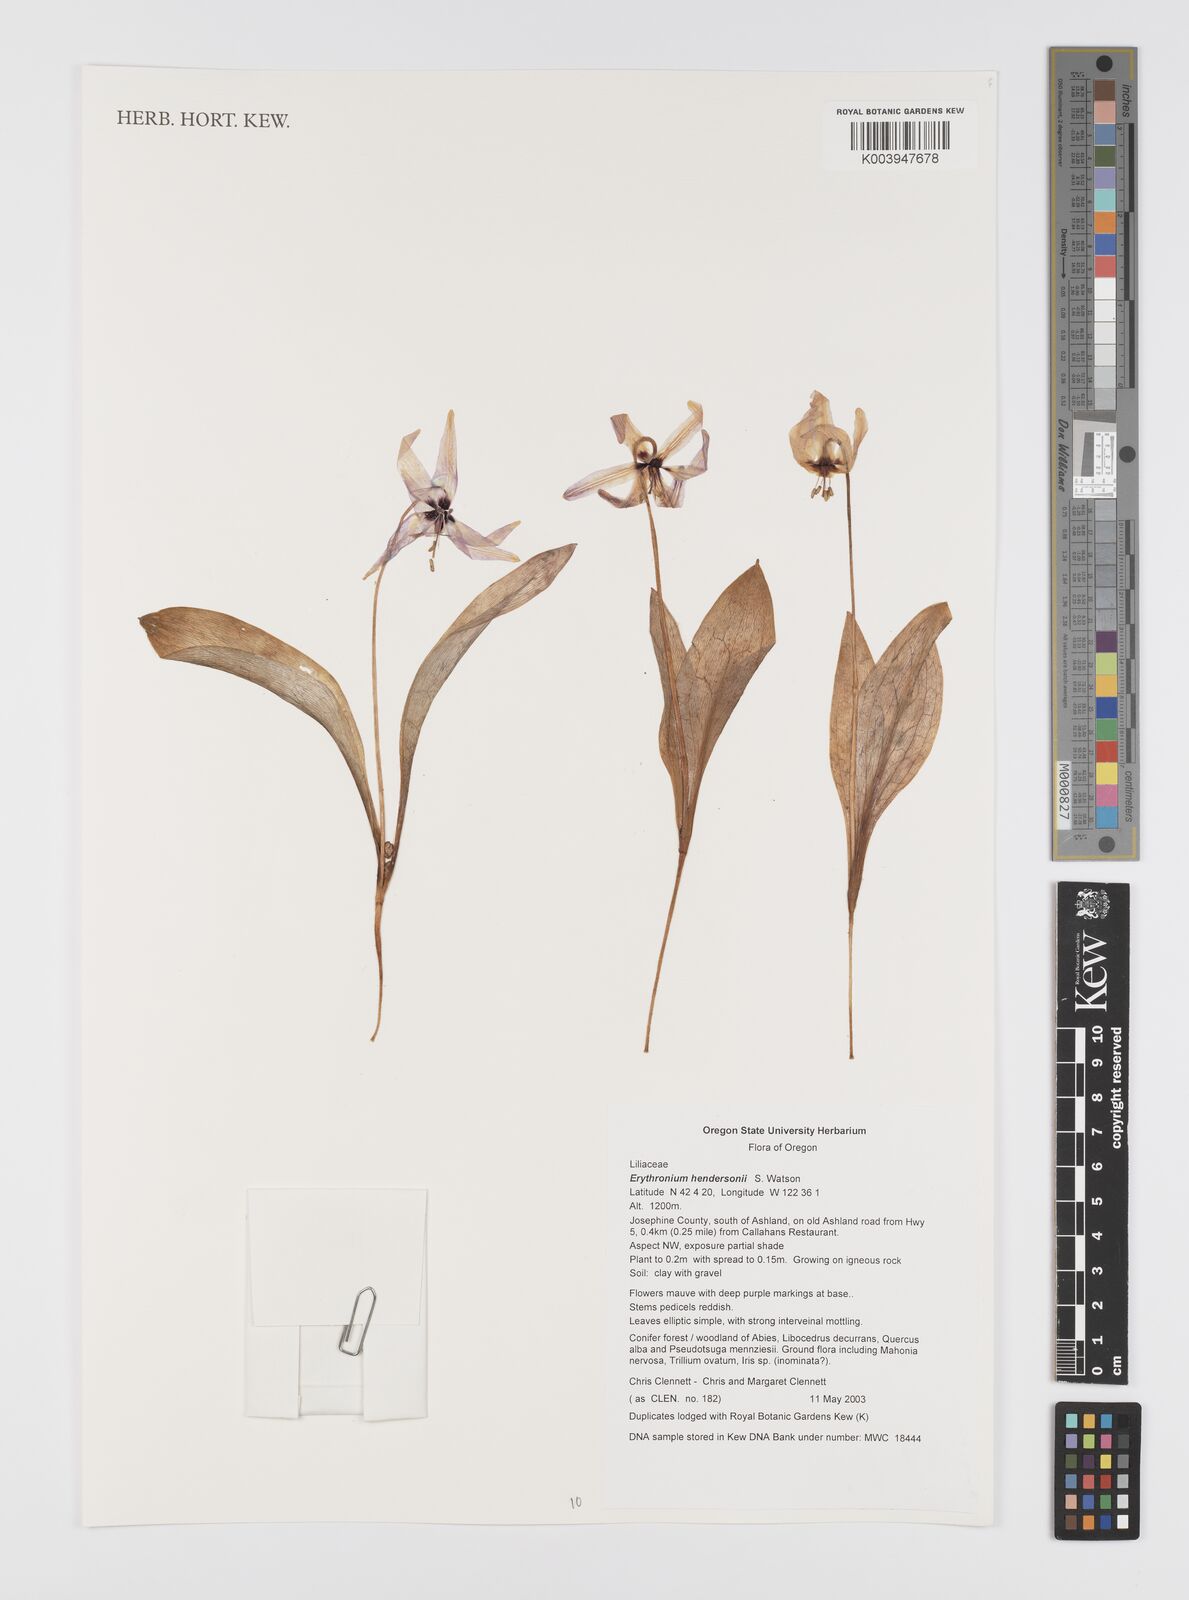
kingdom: Plantae
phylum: Tracheophyta
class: Liliopsida
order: Liliales
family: Liliaceae
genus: Erythronium
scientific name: Erythronium hendersonii
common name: Henderson's fawn-lily
